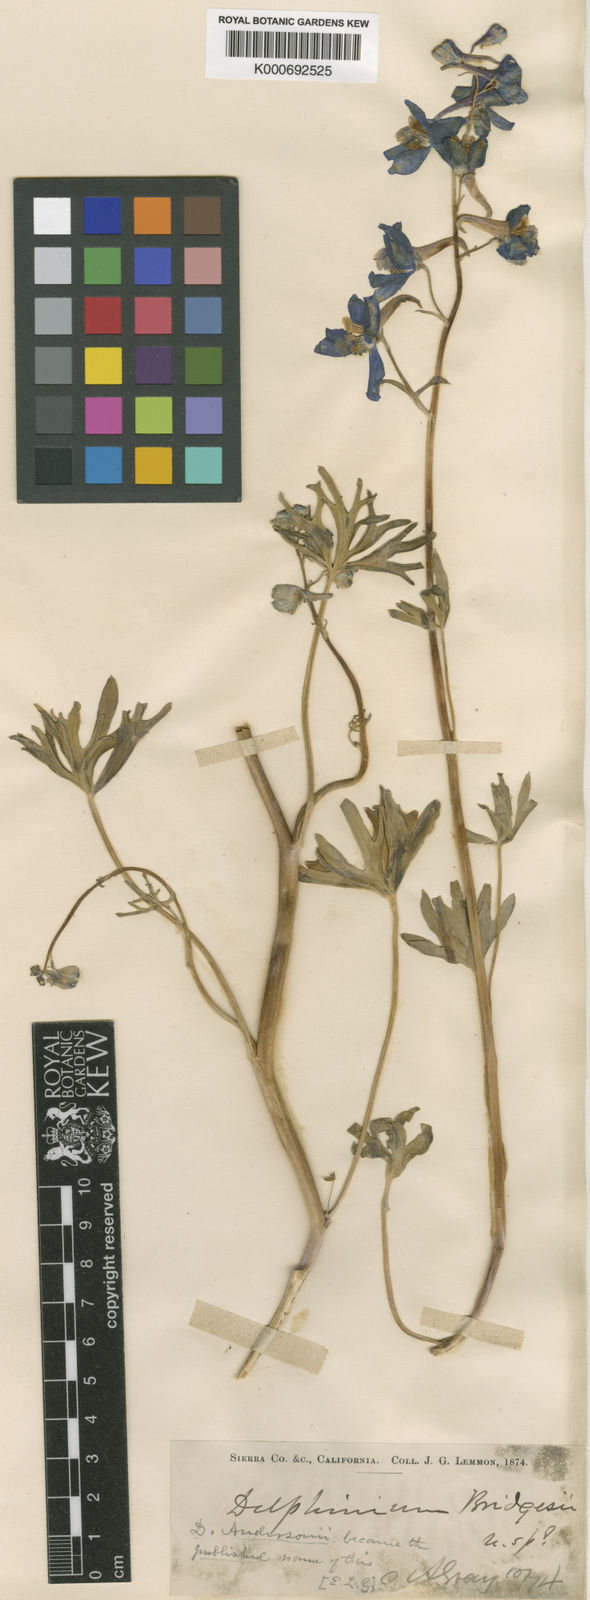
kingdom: Plantae
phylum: Tracheophyta
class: Magnoliopsida
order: Ranunculales
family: Ranunculaceae
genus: Delphinium
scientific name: Delphinium andersonii
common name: Anderson's larkspur
